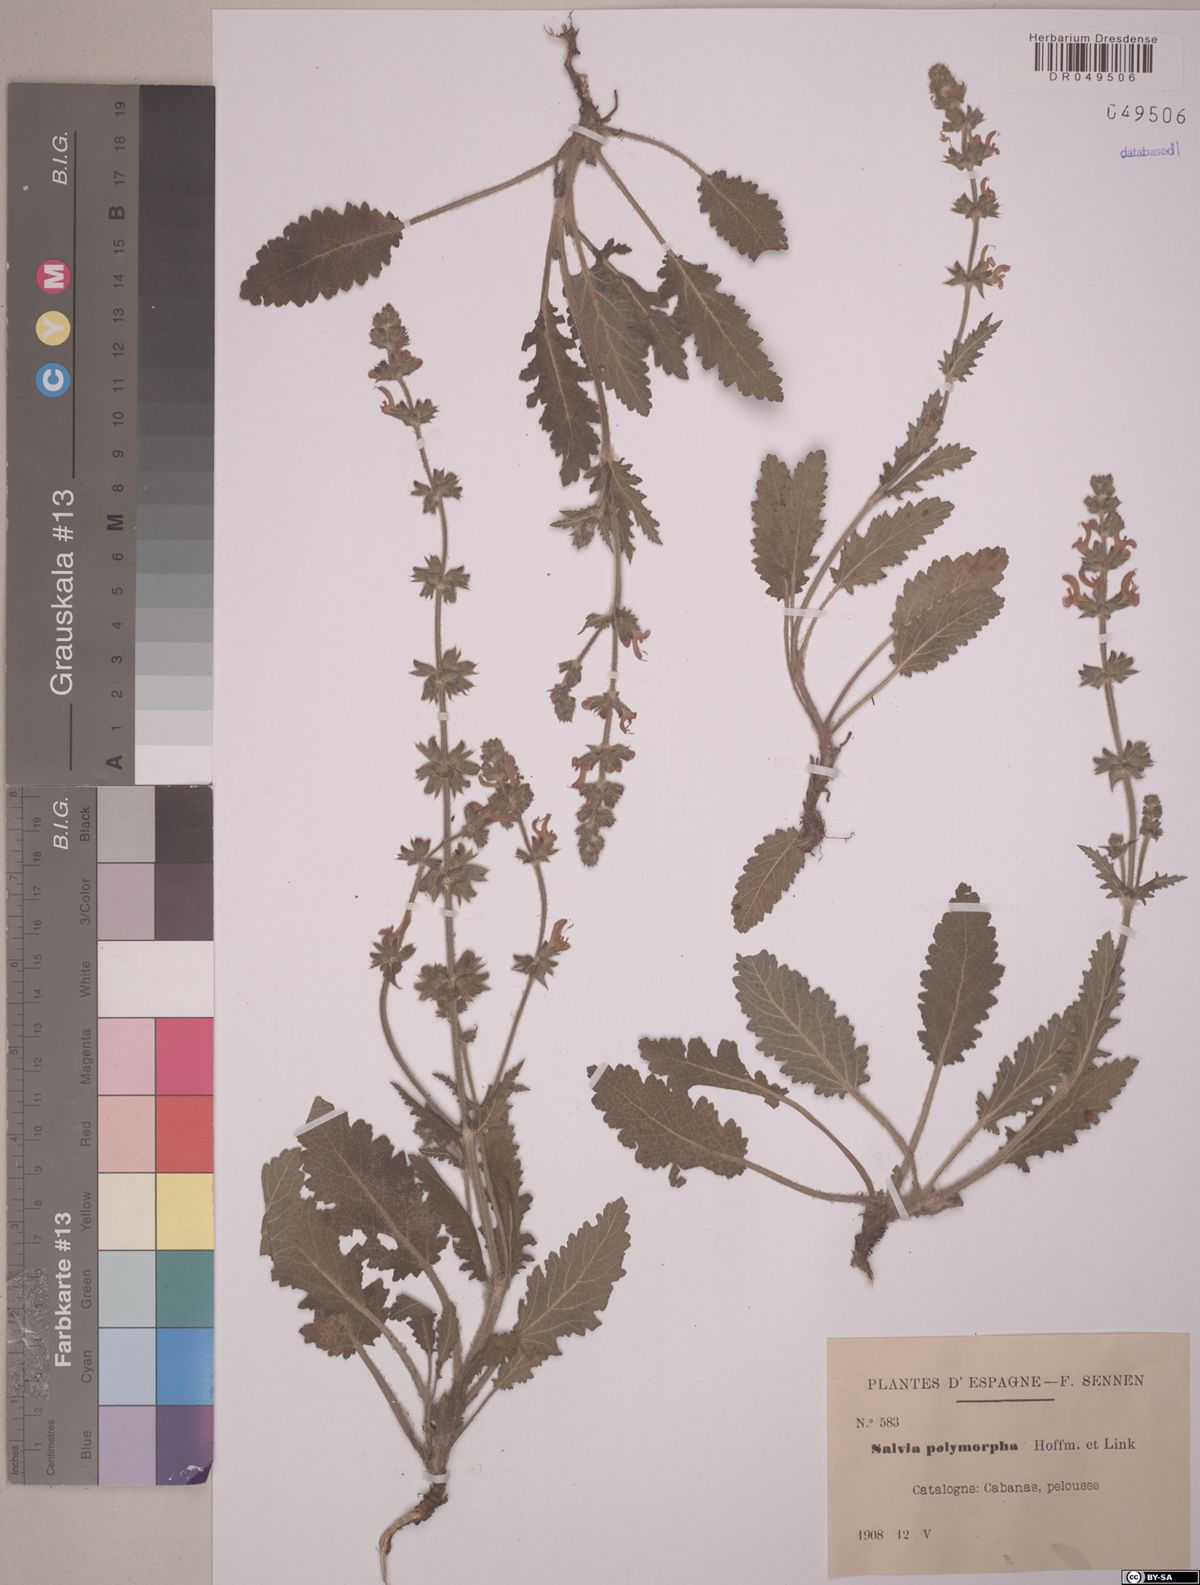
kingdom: Plantae
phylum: Tracheophyta
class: Magnoliopsida
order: Lamiales
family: Lamiaceae
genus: Salvia
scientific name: Salvia verbenaca
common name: Wild clary
